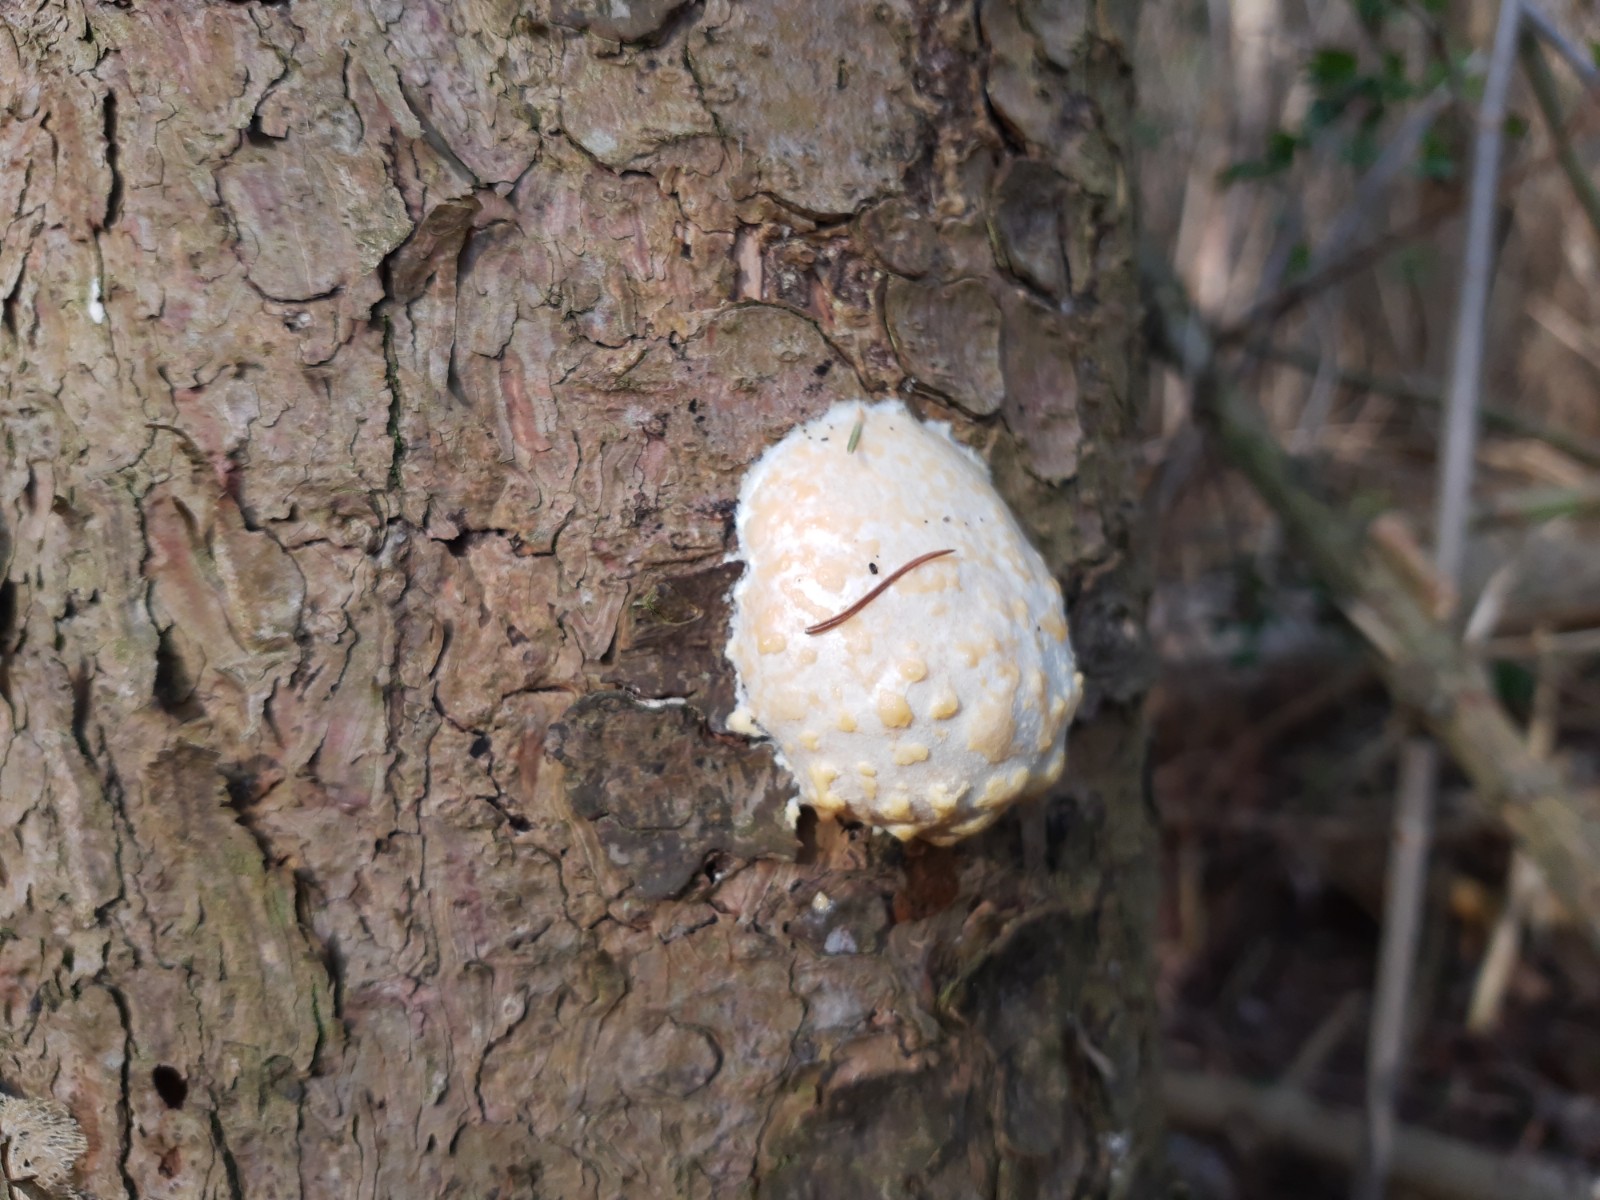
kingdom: Protozoa
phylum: Mycetozoa
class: Myxomycetes
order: Cribrariales
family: Tubiferaceae
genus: Reticularia
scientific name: Reticularia lycoperdon
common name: skinnende støvpude
